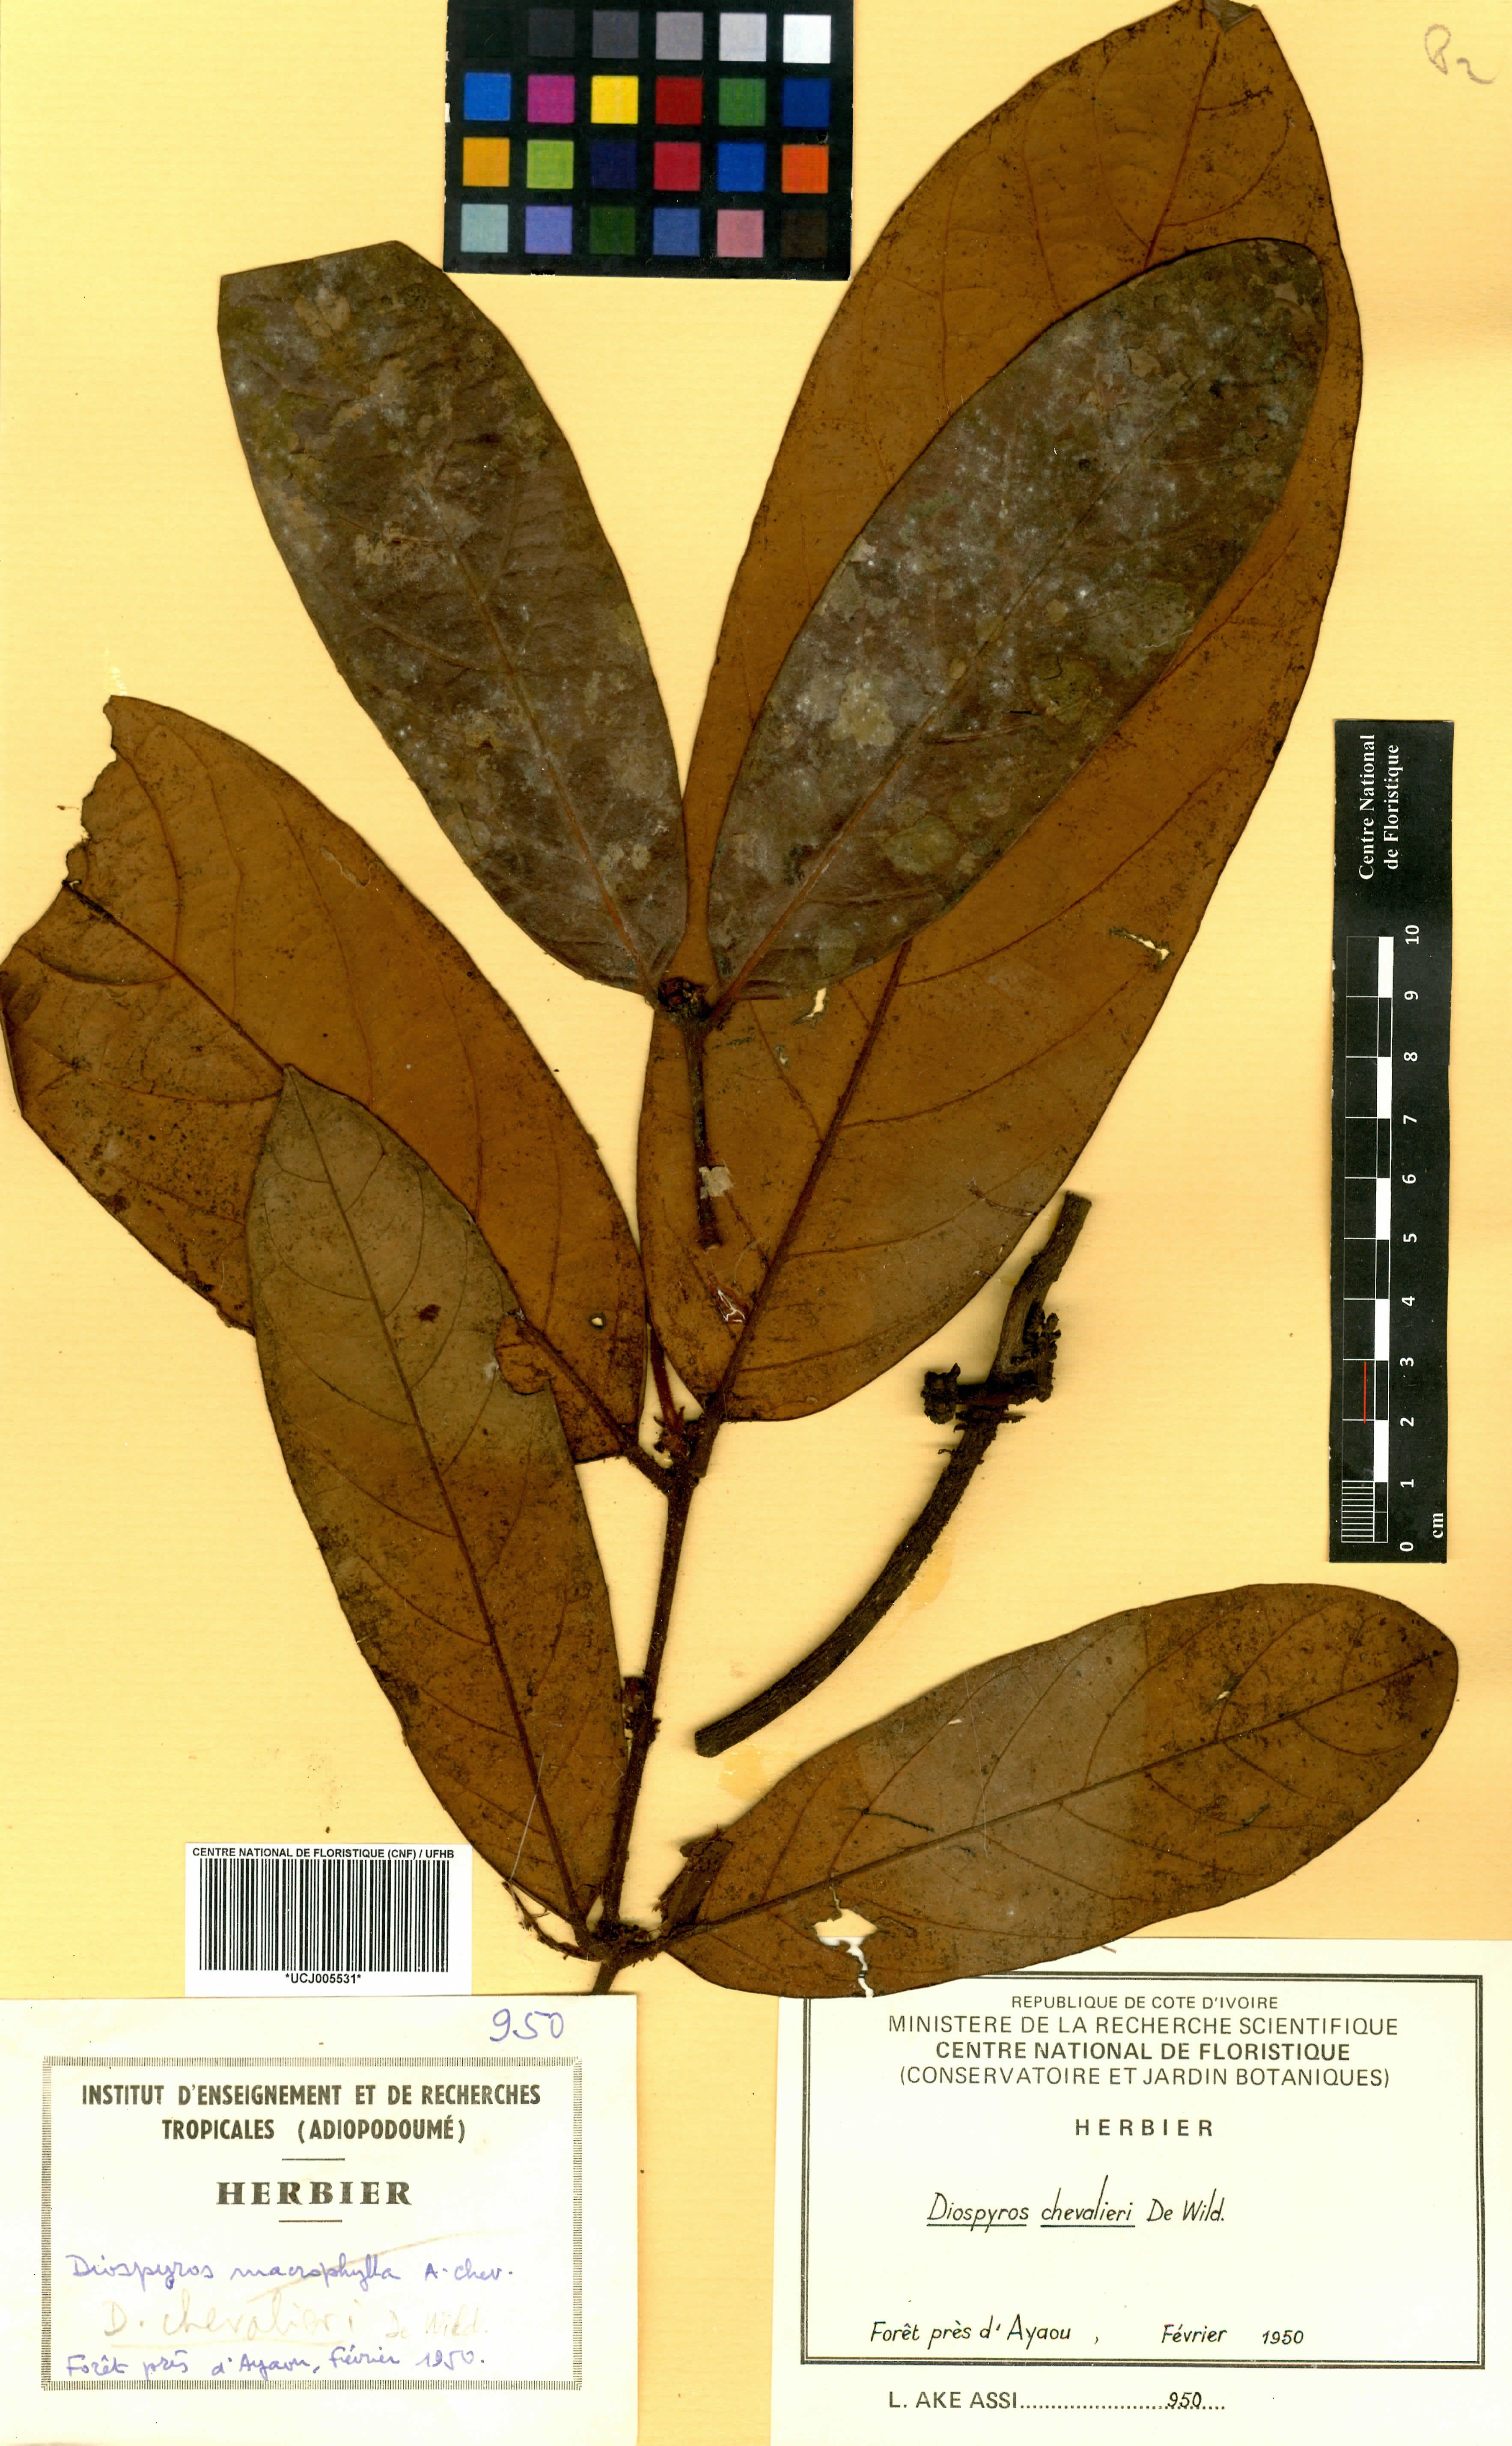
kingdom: Plantae
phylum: Tracheophyta
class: Magnoliopsida
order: Ericales
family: Ebenaceae
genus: Diospyros
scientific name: Diospyros chevalieri
